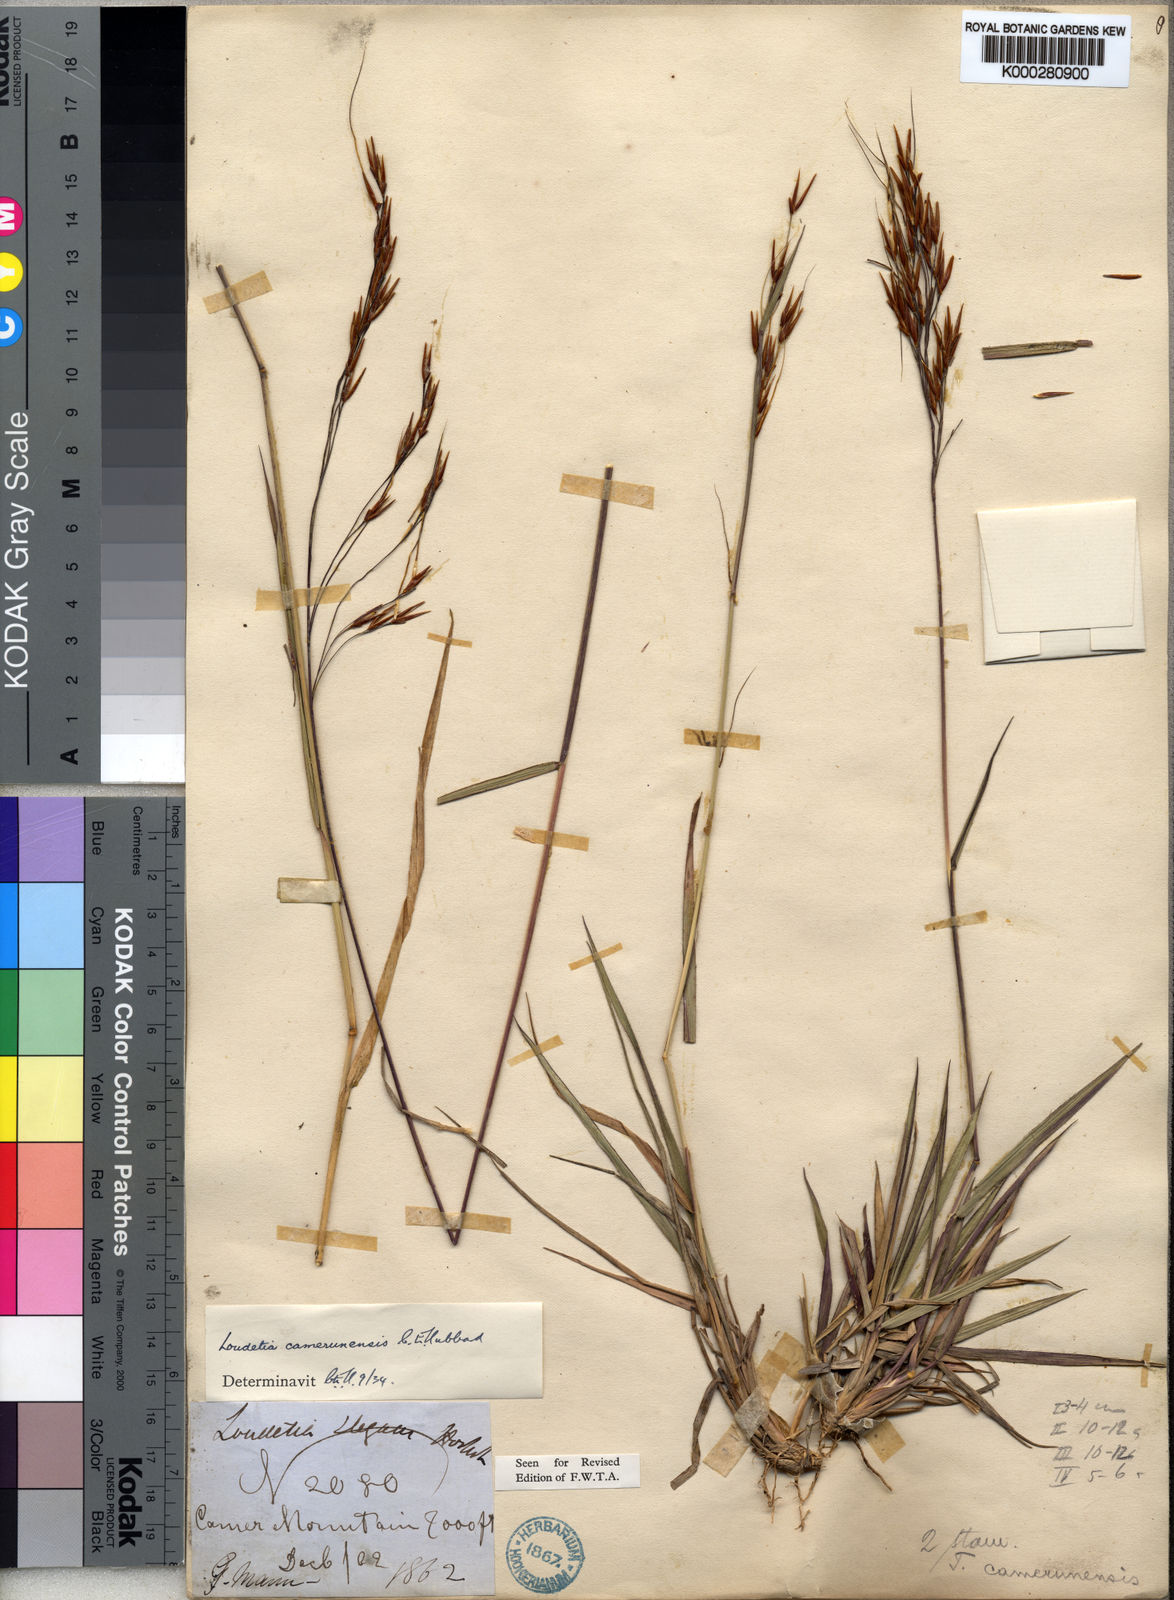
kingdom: Plantae
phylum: Tracheophyta
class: Liliopsida
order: Poales
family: Poaceae
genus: Loudetia
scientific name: Loudetia simplex
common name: Common russet grass
